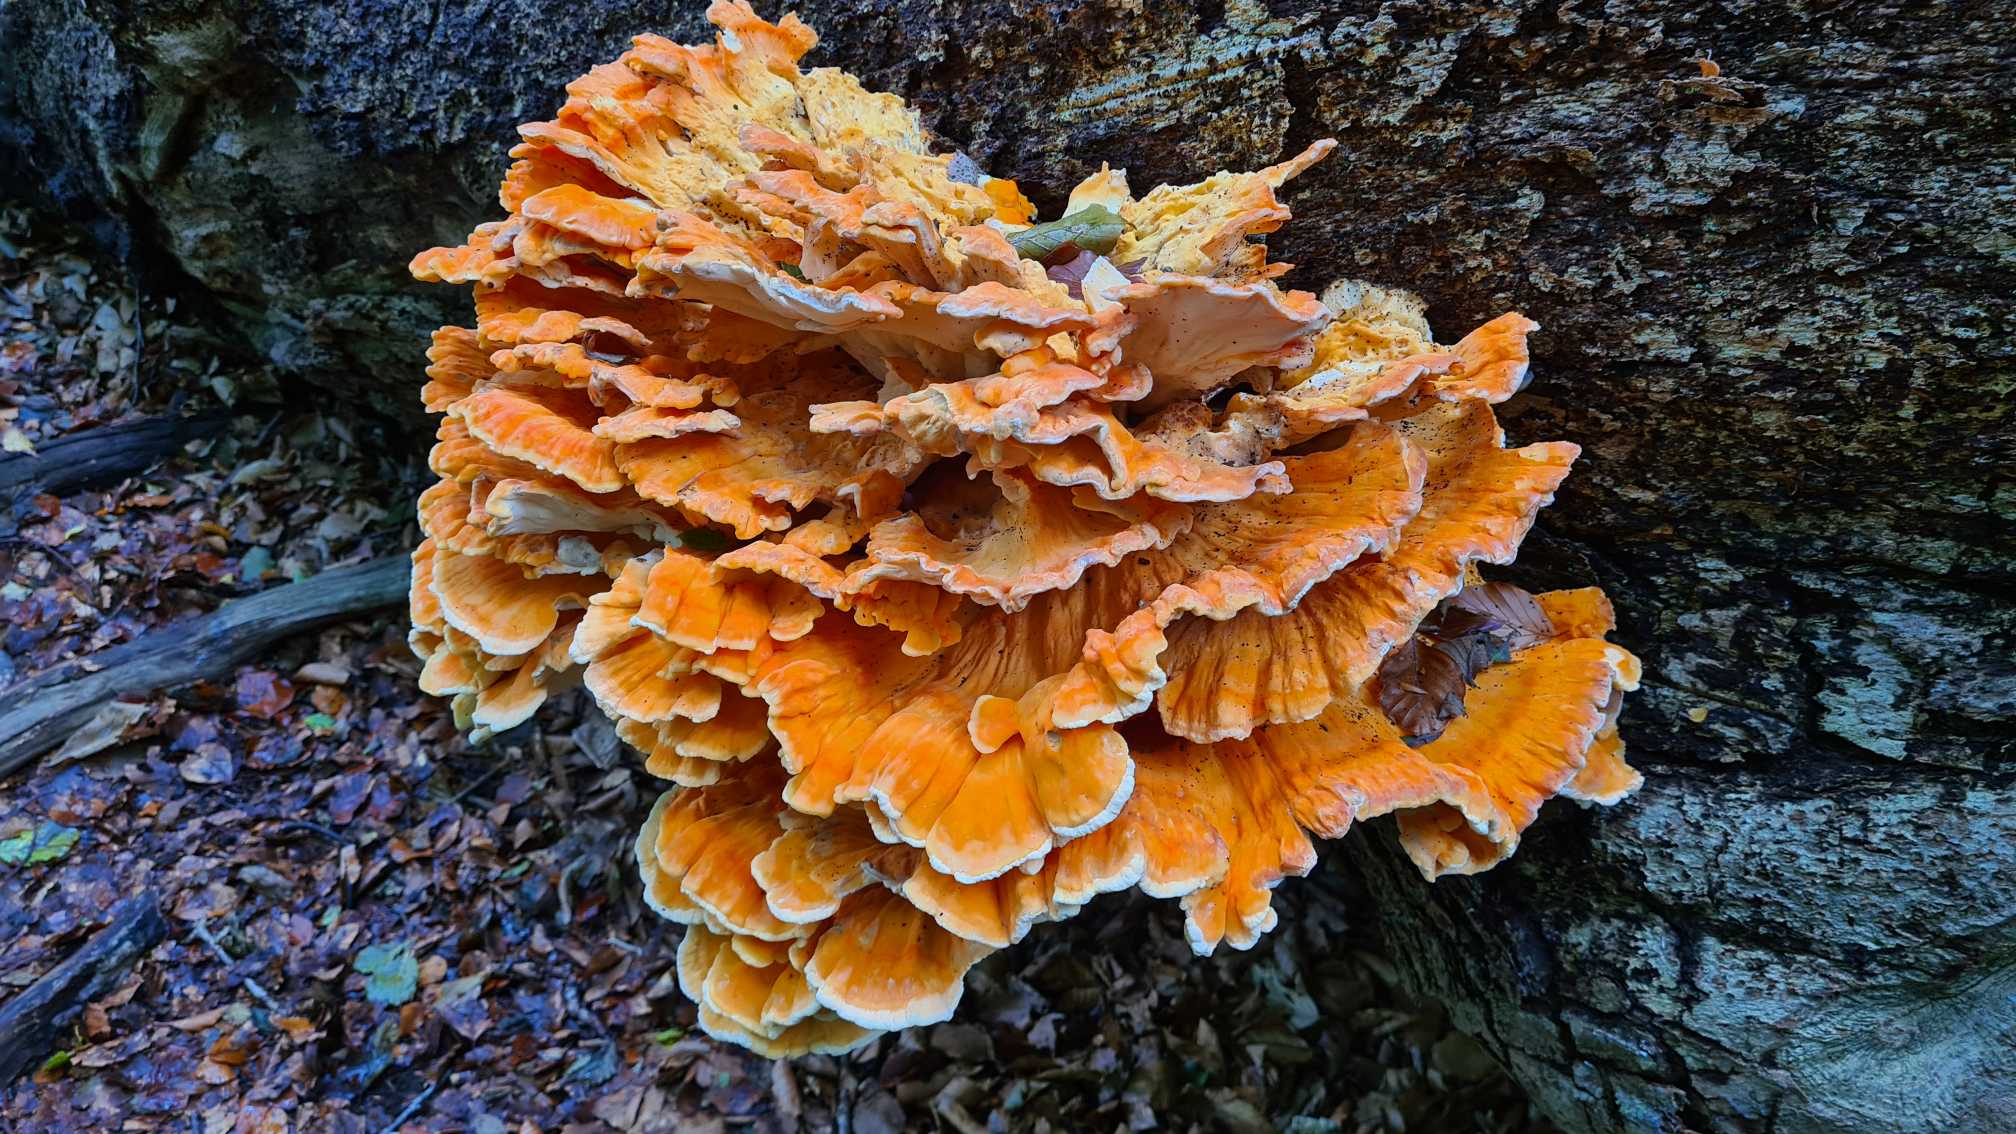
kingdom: Fungi
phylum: Basidiomycota
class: Agaricomycetes
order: Polyporales
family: Laetiporaceae
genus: Laetiporus
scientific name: Laetiporus sulphureus
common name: Svovlporesvamp
